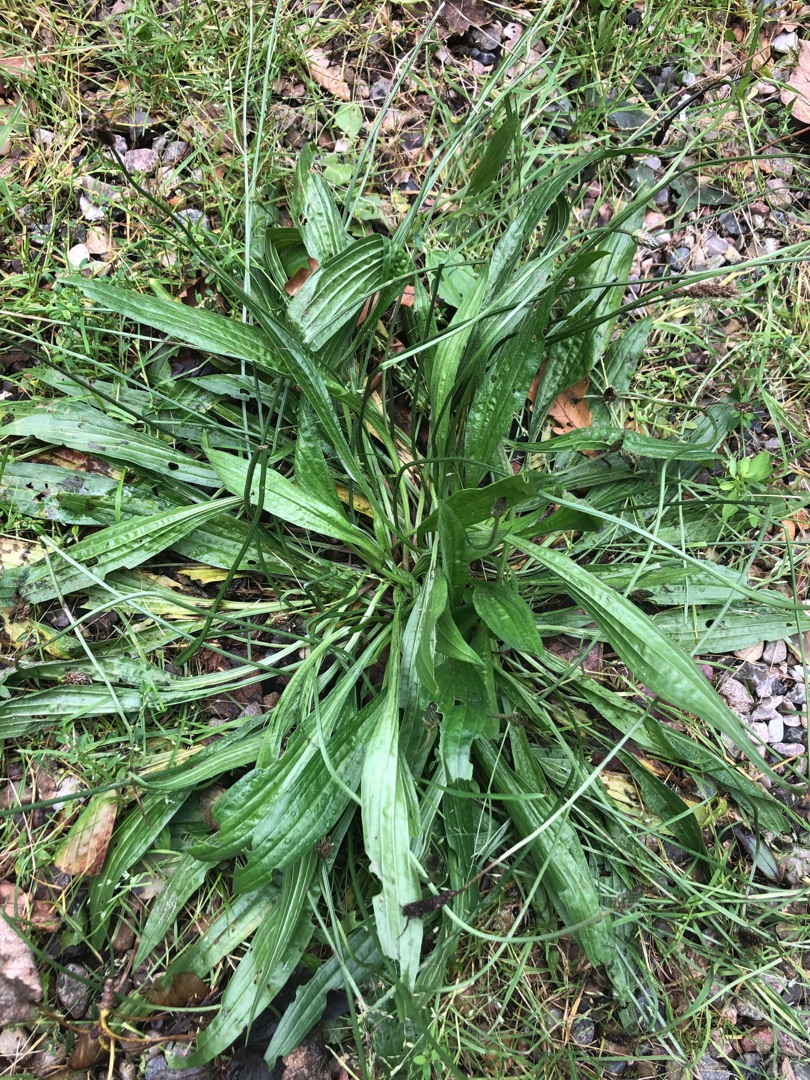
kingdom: Plantae
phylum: Tracheophyta
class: Magnoliopsida
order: Lamiales
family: Plantaginaceae
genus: Plantago
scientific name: Plantago lanceolata
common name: Lancet-vejbred
